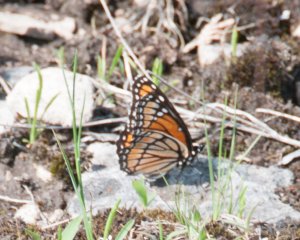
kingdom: Animalia
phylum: Arthropoda
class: Insecta
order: Lepidoptera
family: Nymphalidae
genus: Limenitis
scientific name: Limenitis archippus
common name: Viceroy
